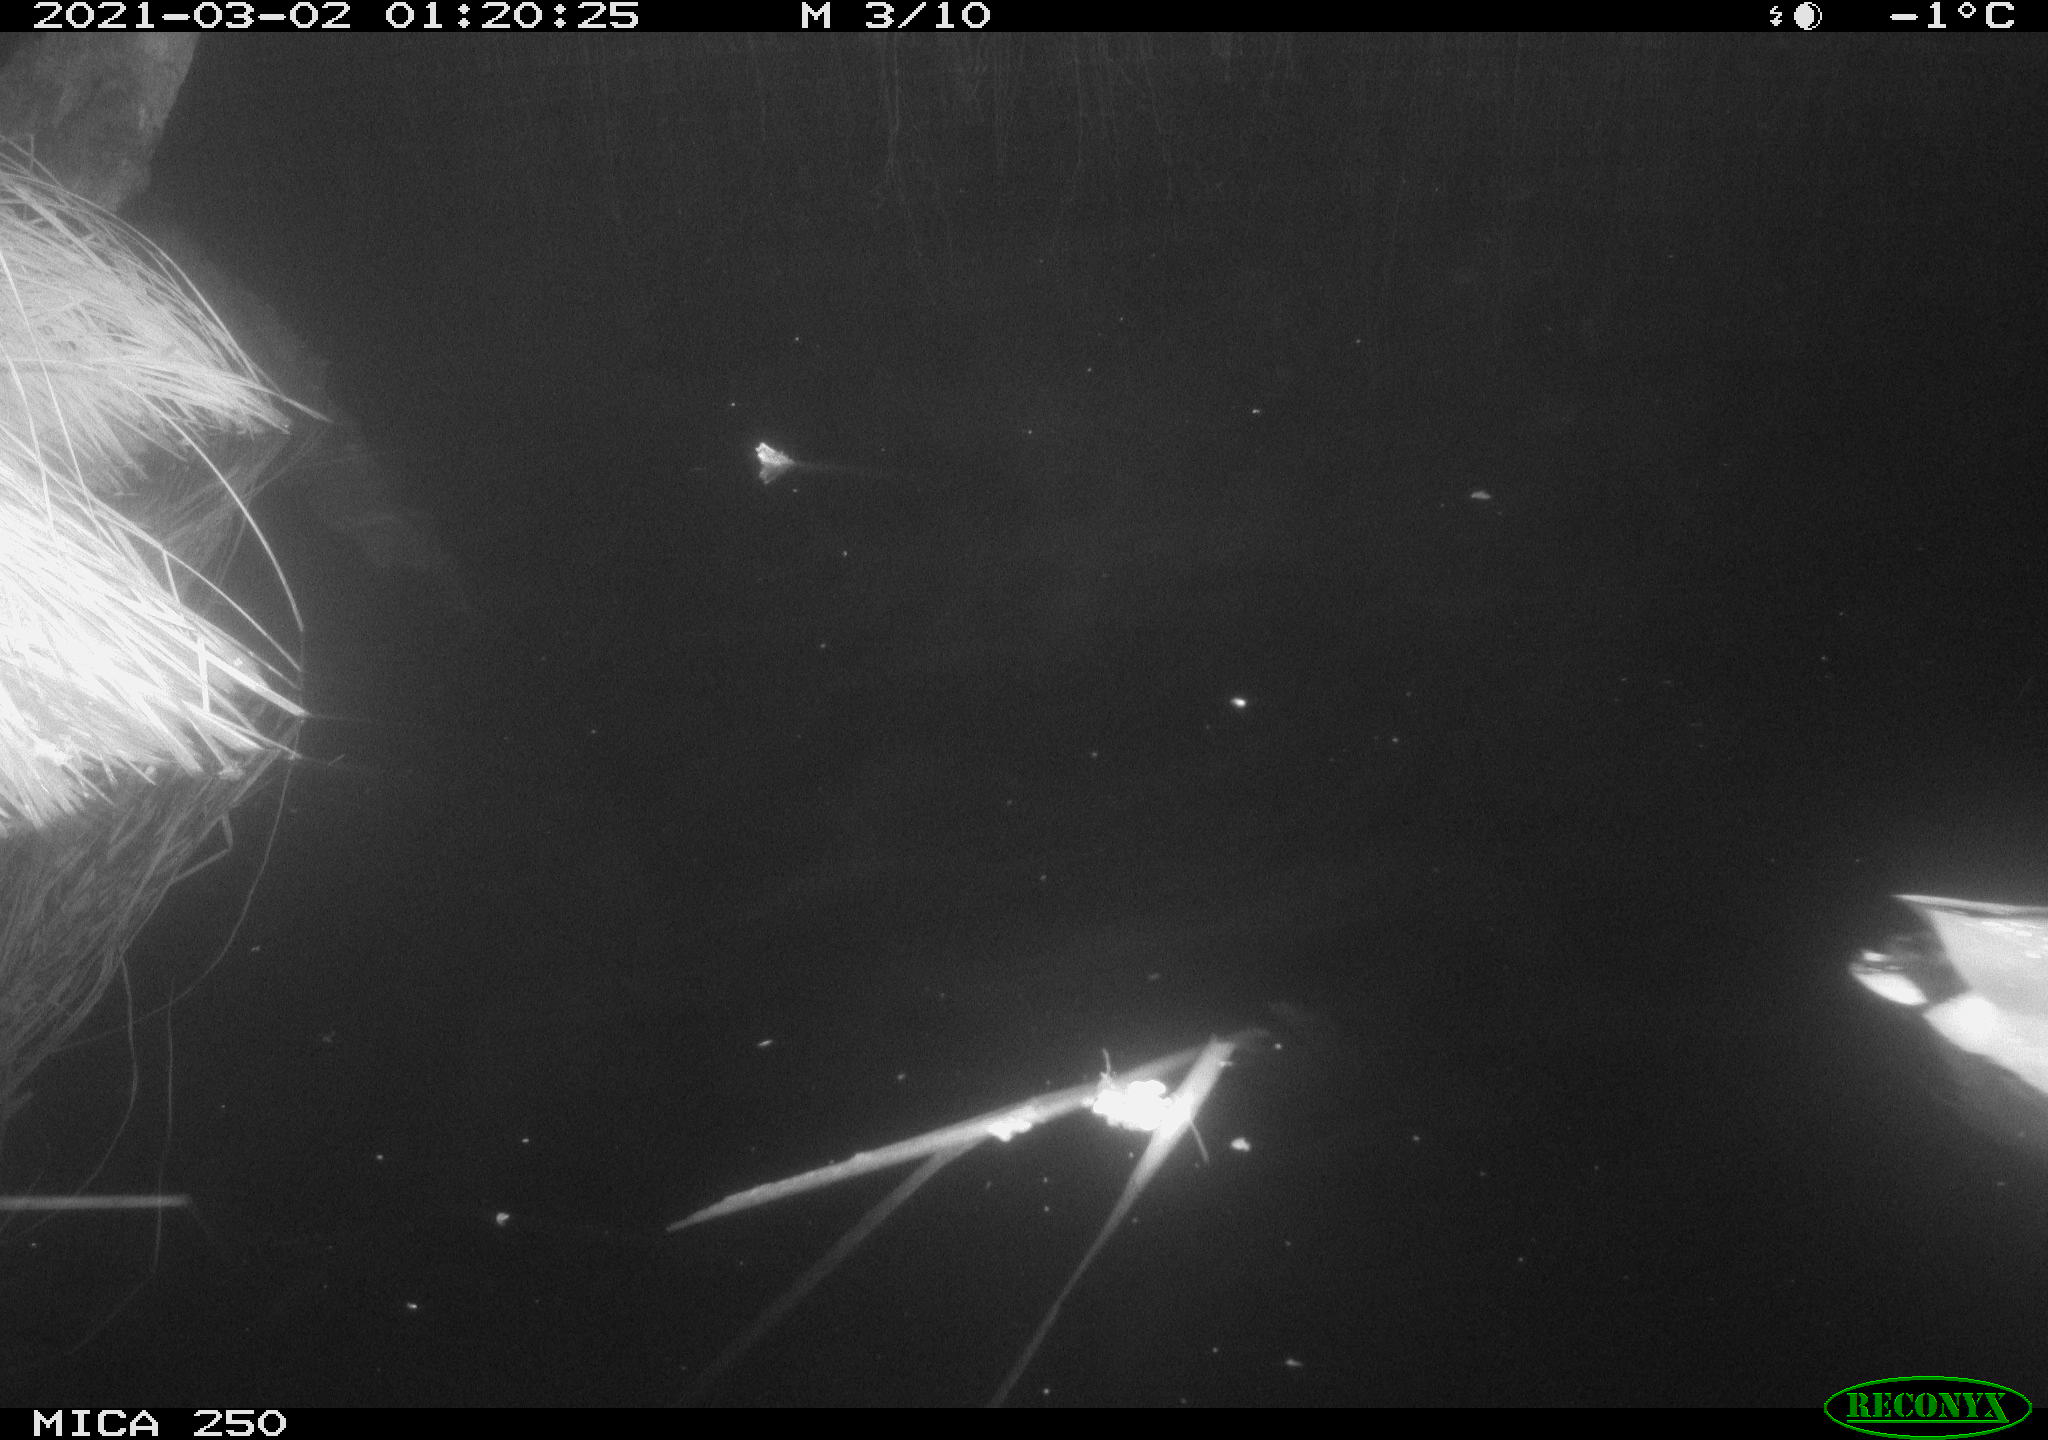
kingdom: Animalia
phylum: Chordata
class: Aves
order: Anseriformes
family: Anatidae
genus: Anas
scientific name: Anas platyrhynchos
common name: Mallard
